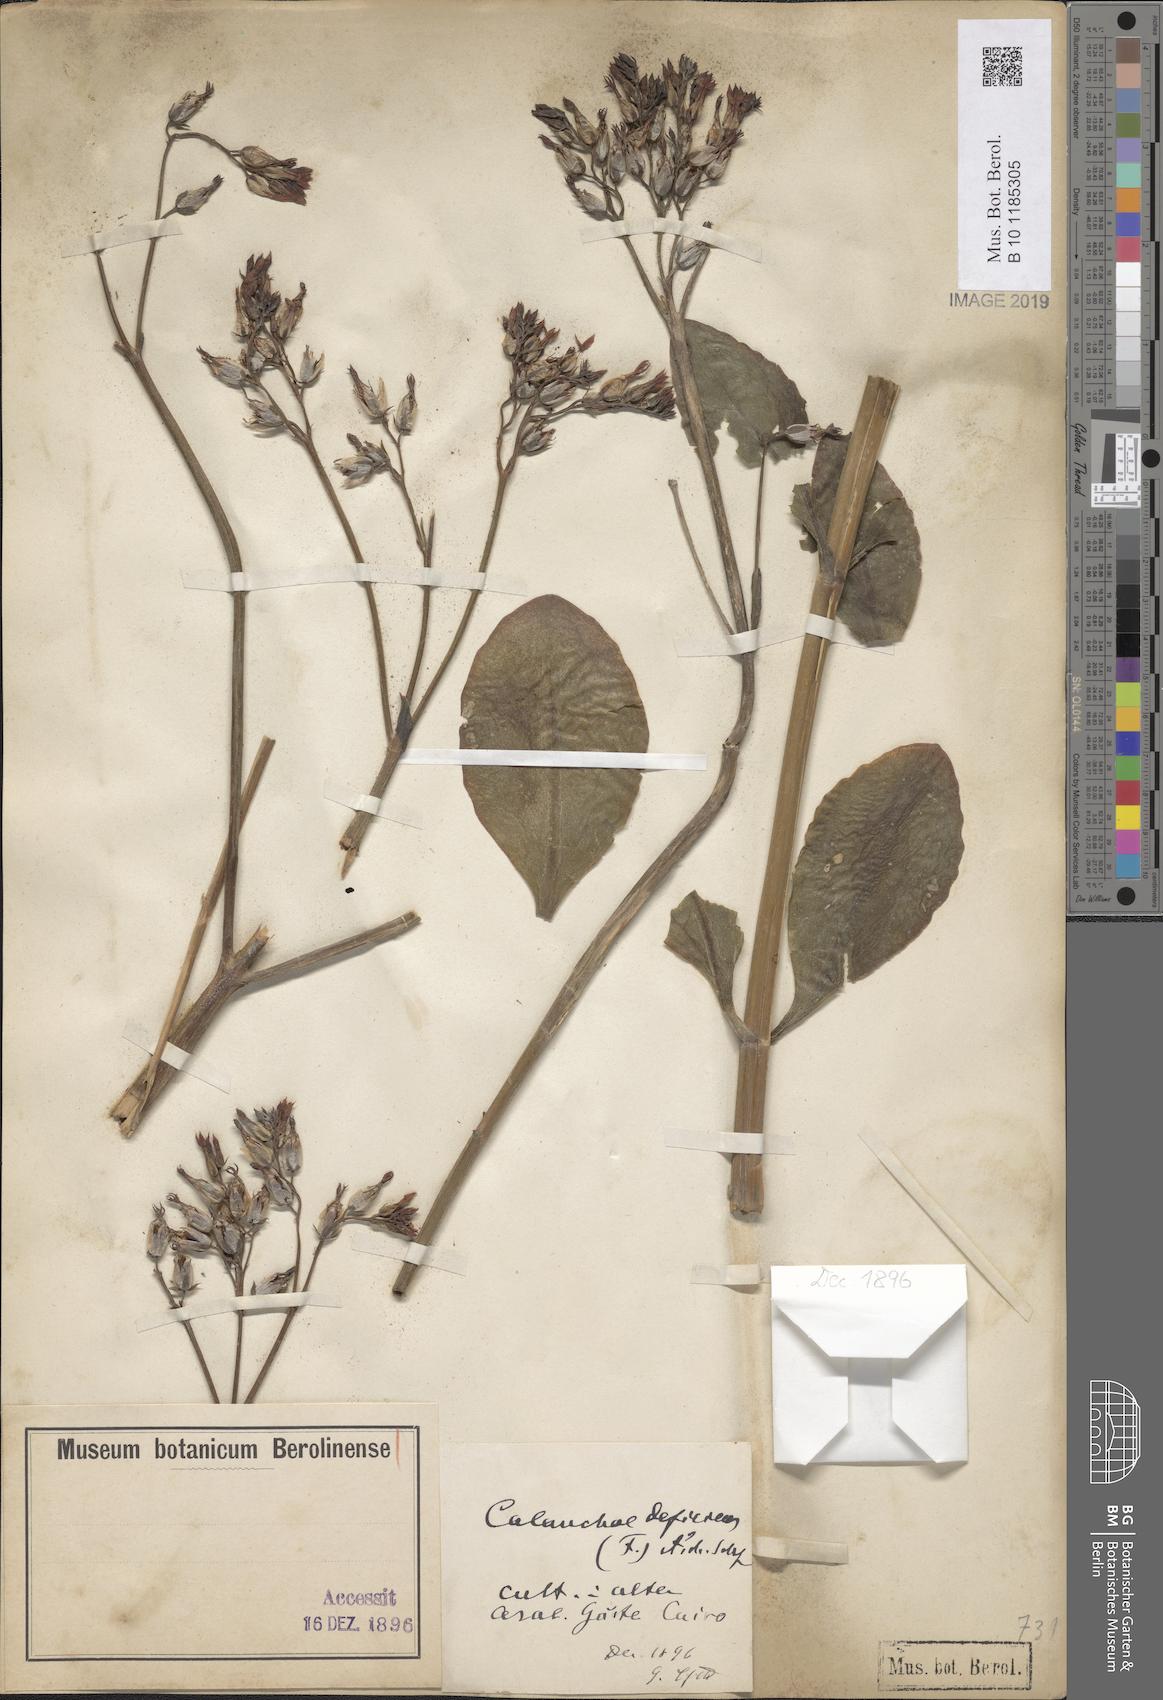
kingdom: Plantae
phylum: Tracheophyta
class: Magnoliopsida
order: Saxifragales
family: Crassulaceae
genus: Kalanchoe
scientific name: Kalanchoe deficiens
